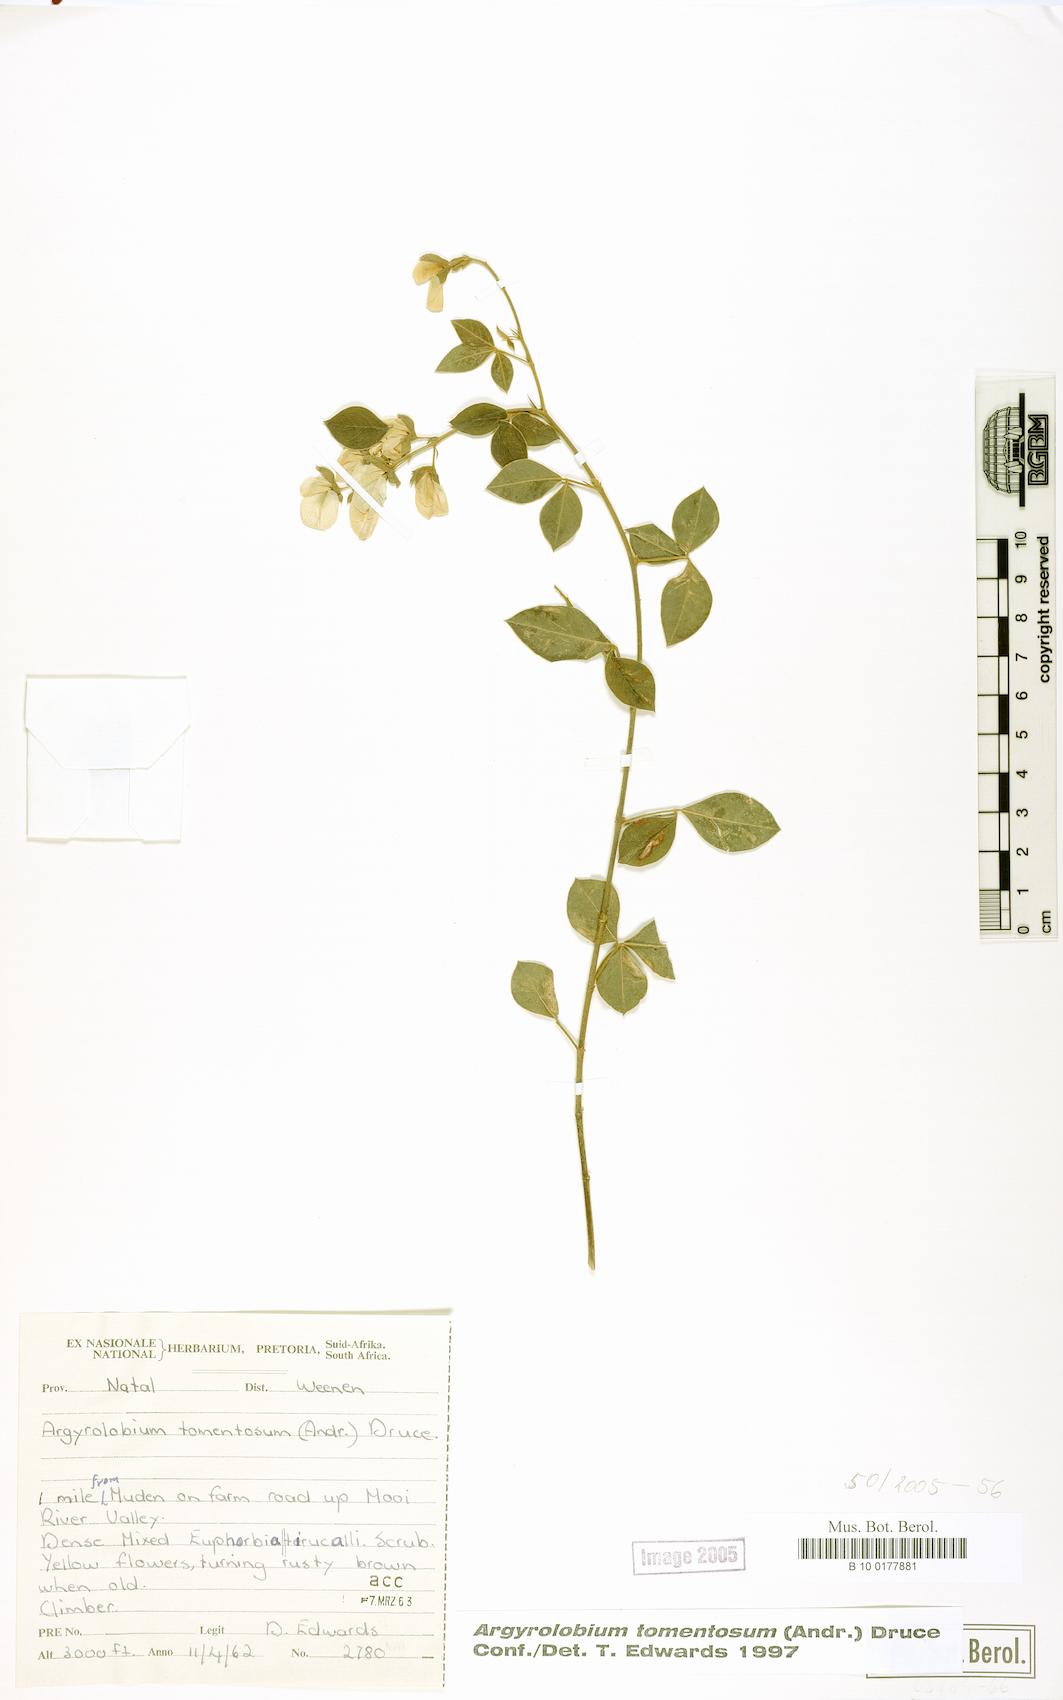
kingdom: Plantae
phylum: Tracheophyta
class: Magnoliopsida
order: Fabales
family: Fabaceae
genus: Argyrolobium
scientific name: Argyrolobium tomentosum
